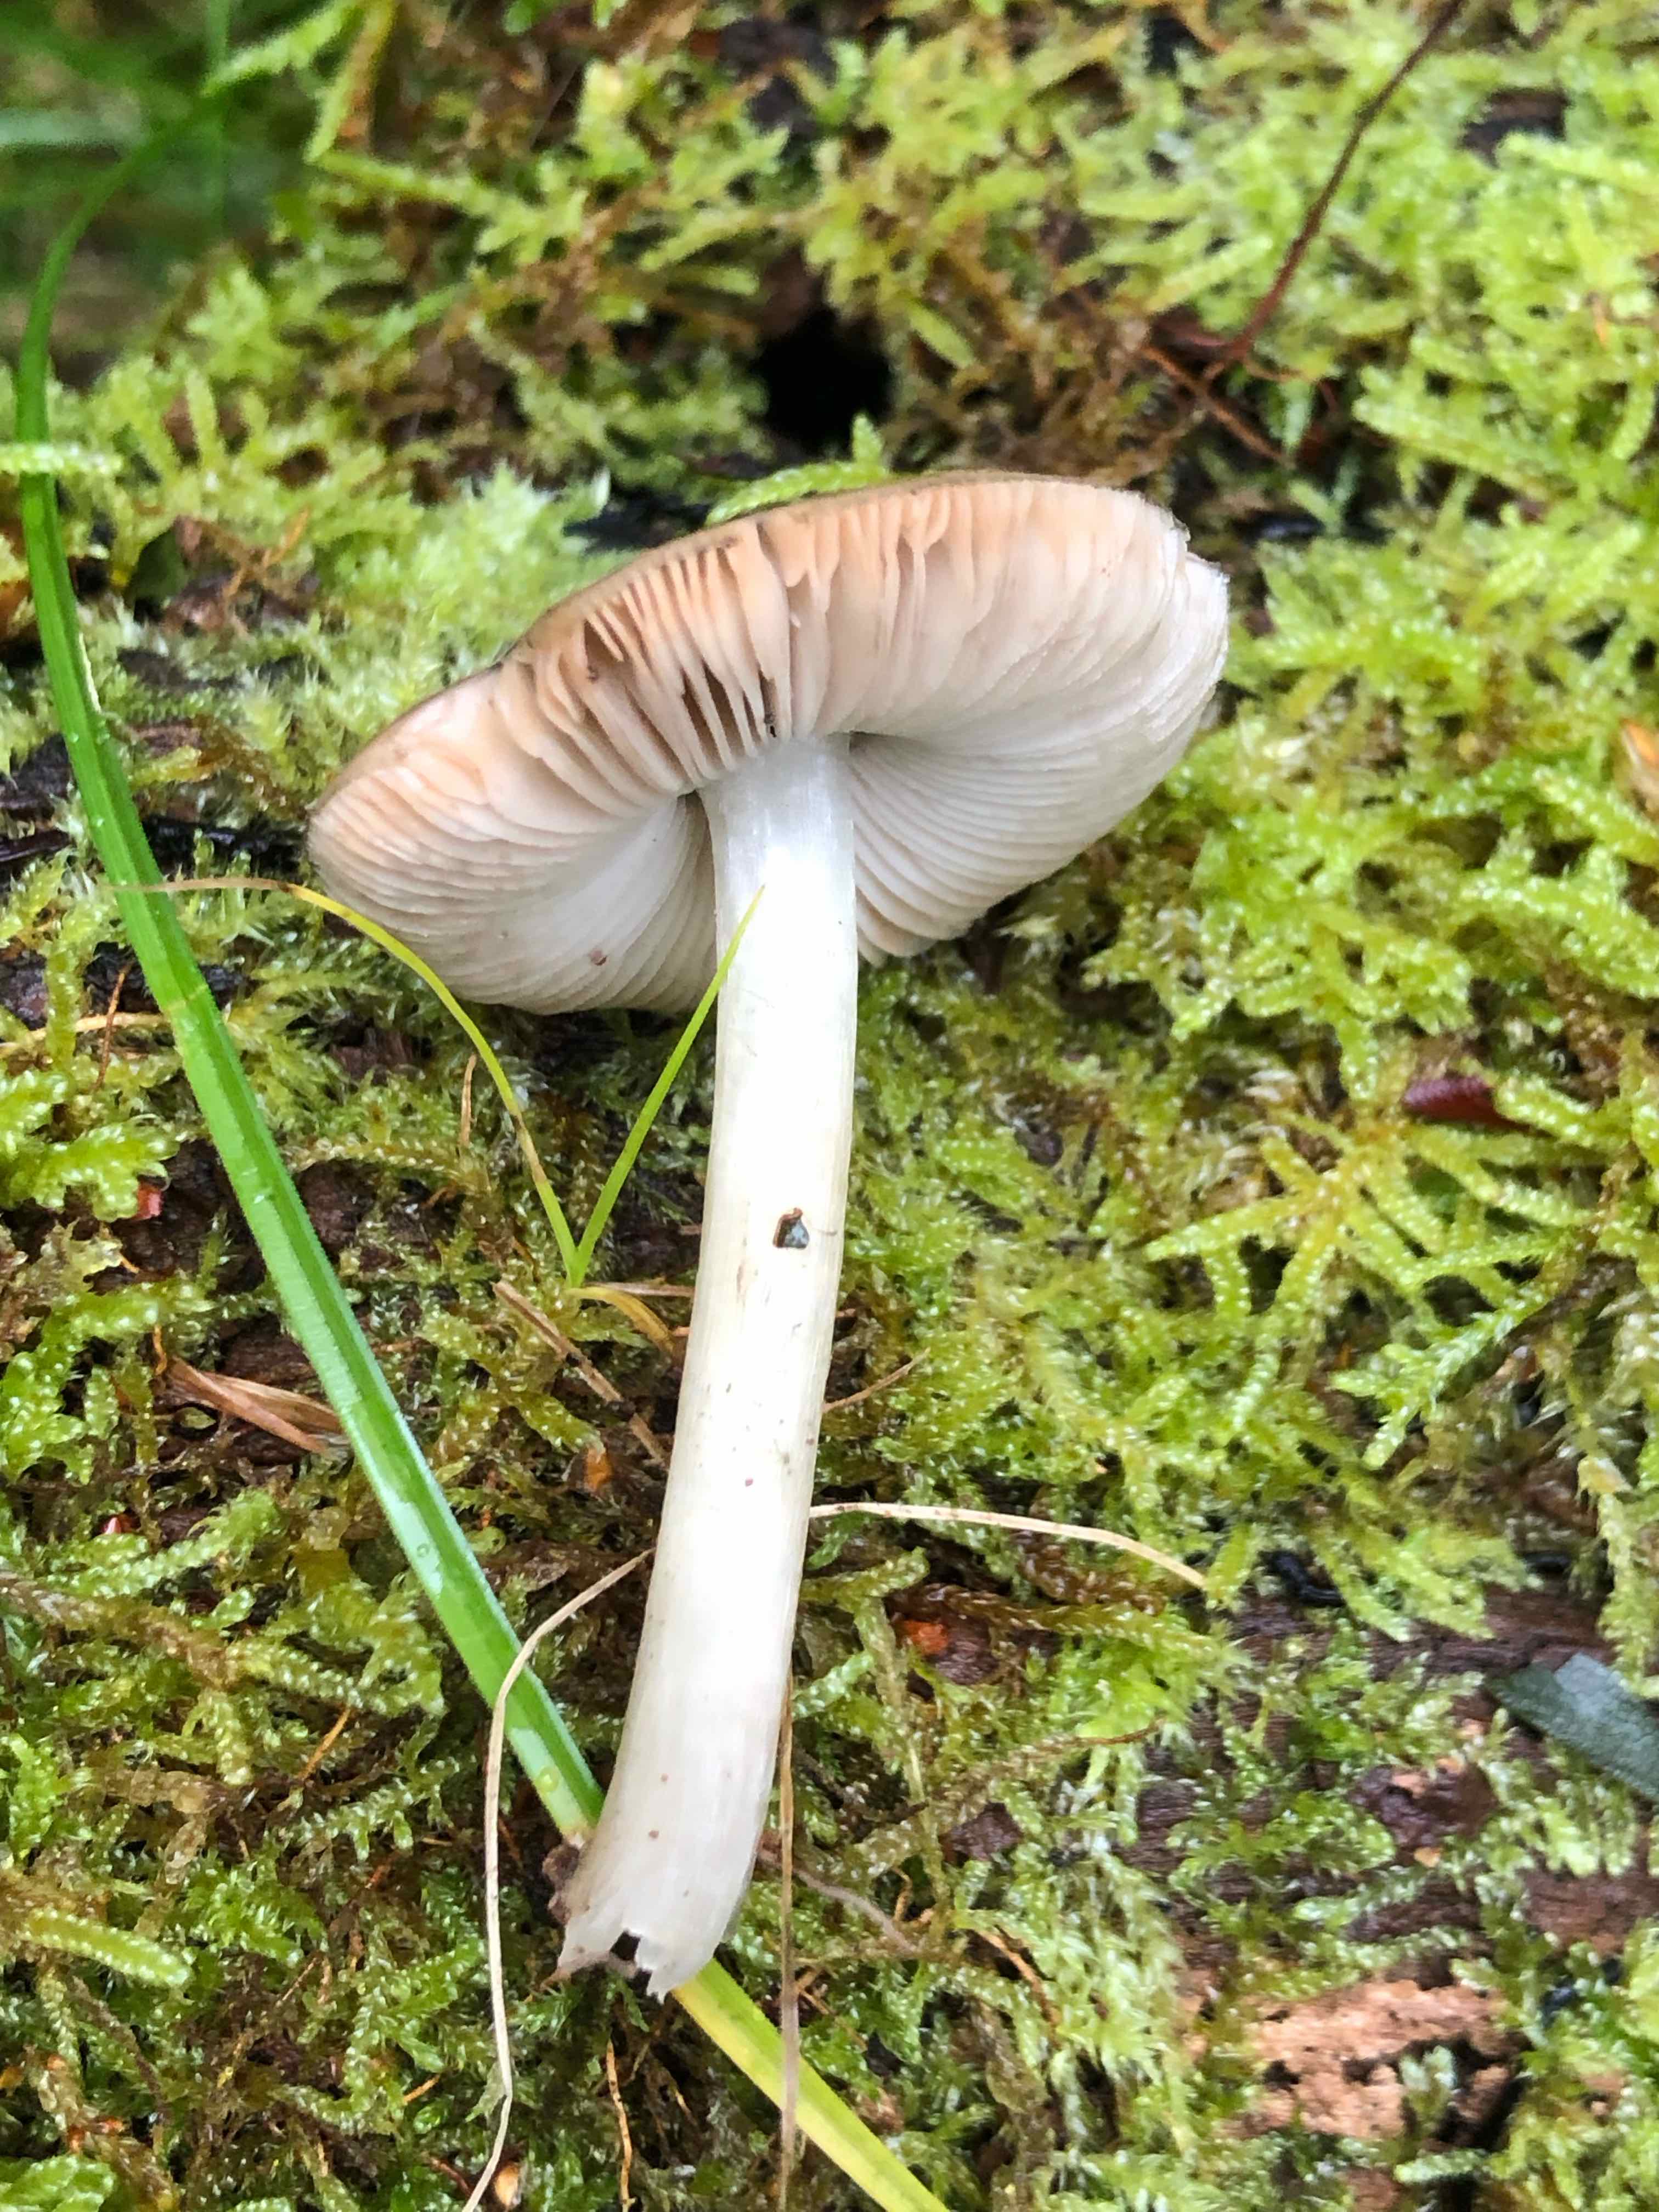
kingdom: Fungi
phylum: Basidiomycota
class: Agaricomycetes
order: Agaricales
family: Pluteaceae
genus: Pluteus
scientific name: Pluteus salicinus
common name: stiv skærmhat
